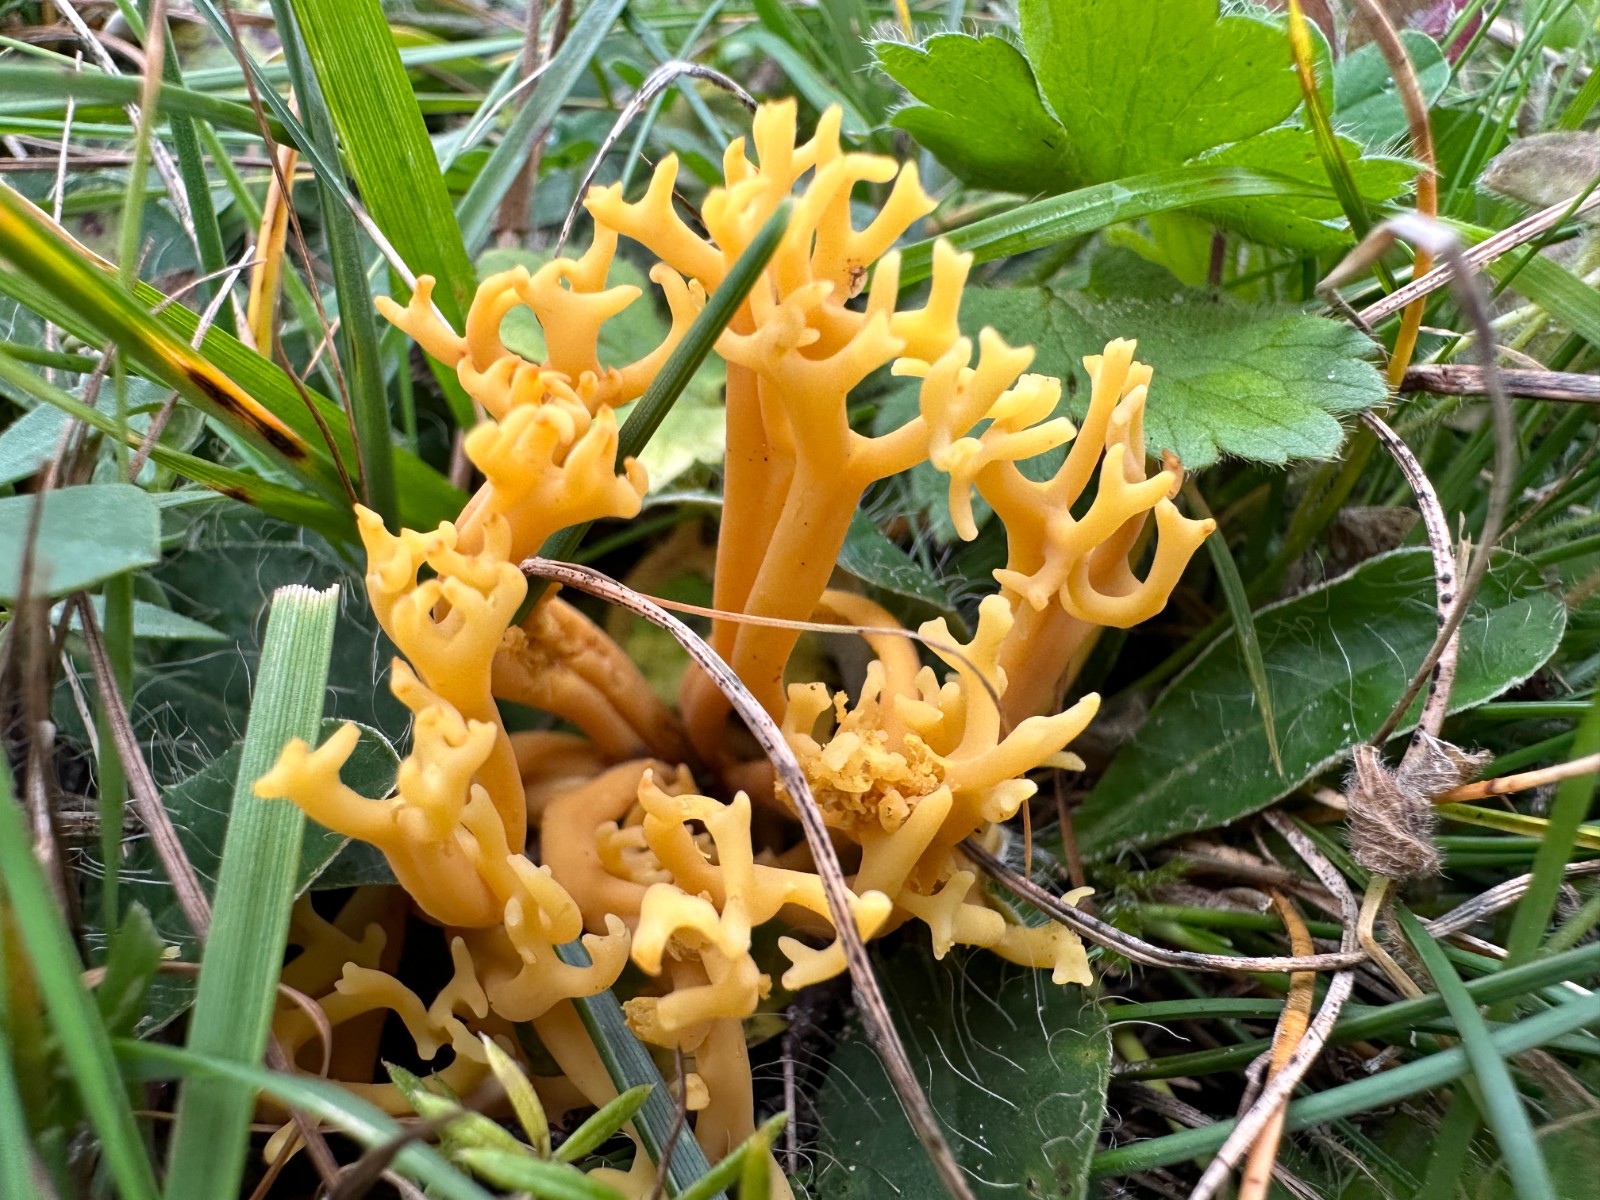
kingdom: Fungi
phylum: Basidiomycota
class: Agaricomycetes
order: Agaricales
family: Clavariaceae
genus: Clavulinopsis
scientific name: Clavulinopsis corniculata
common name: eng-køllesvamp
